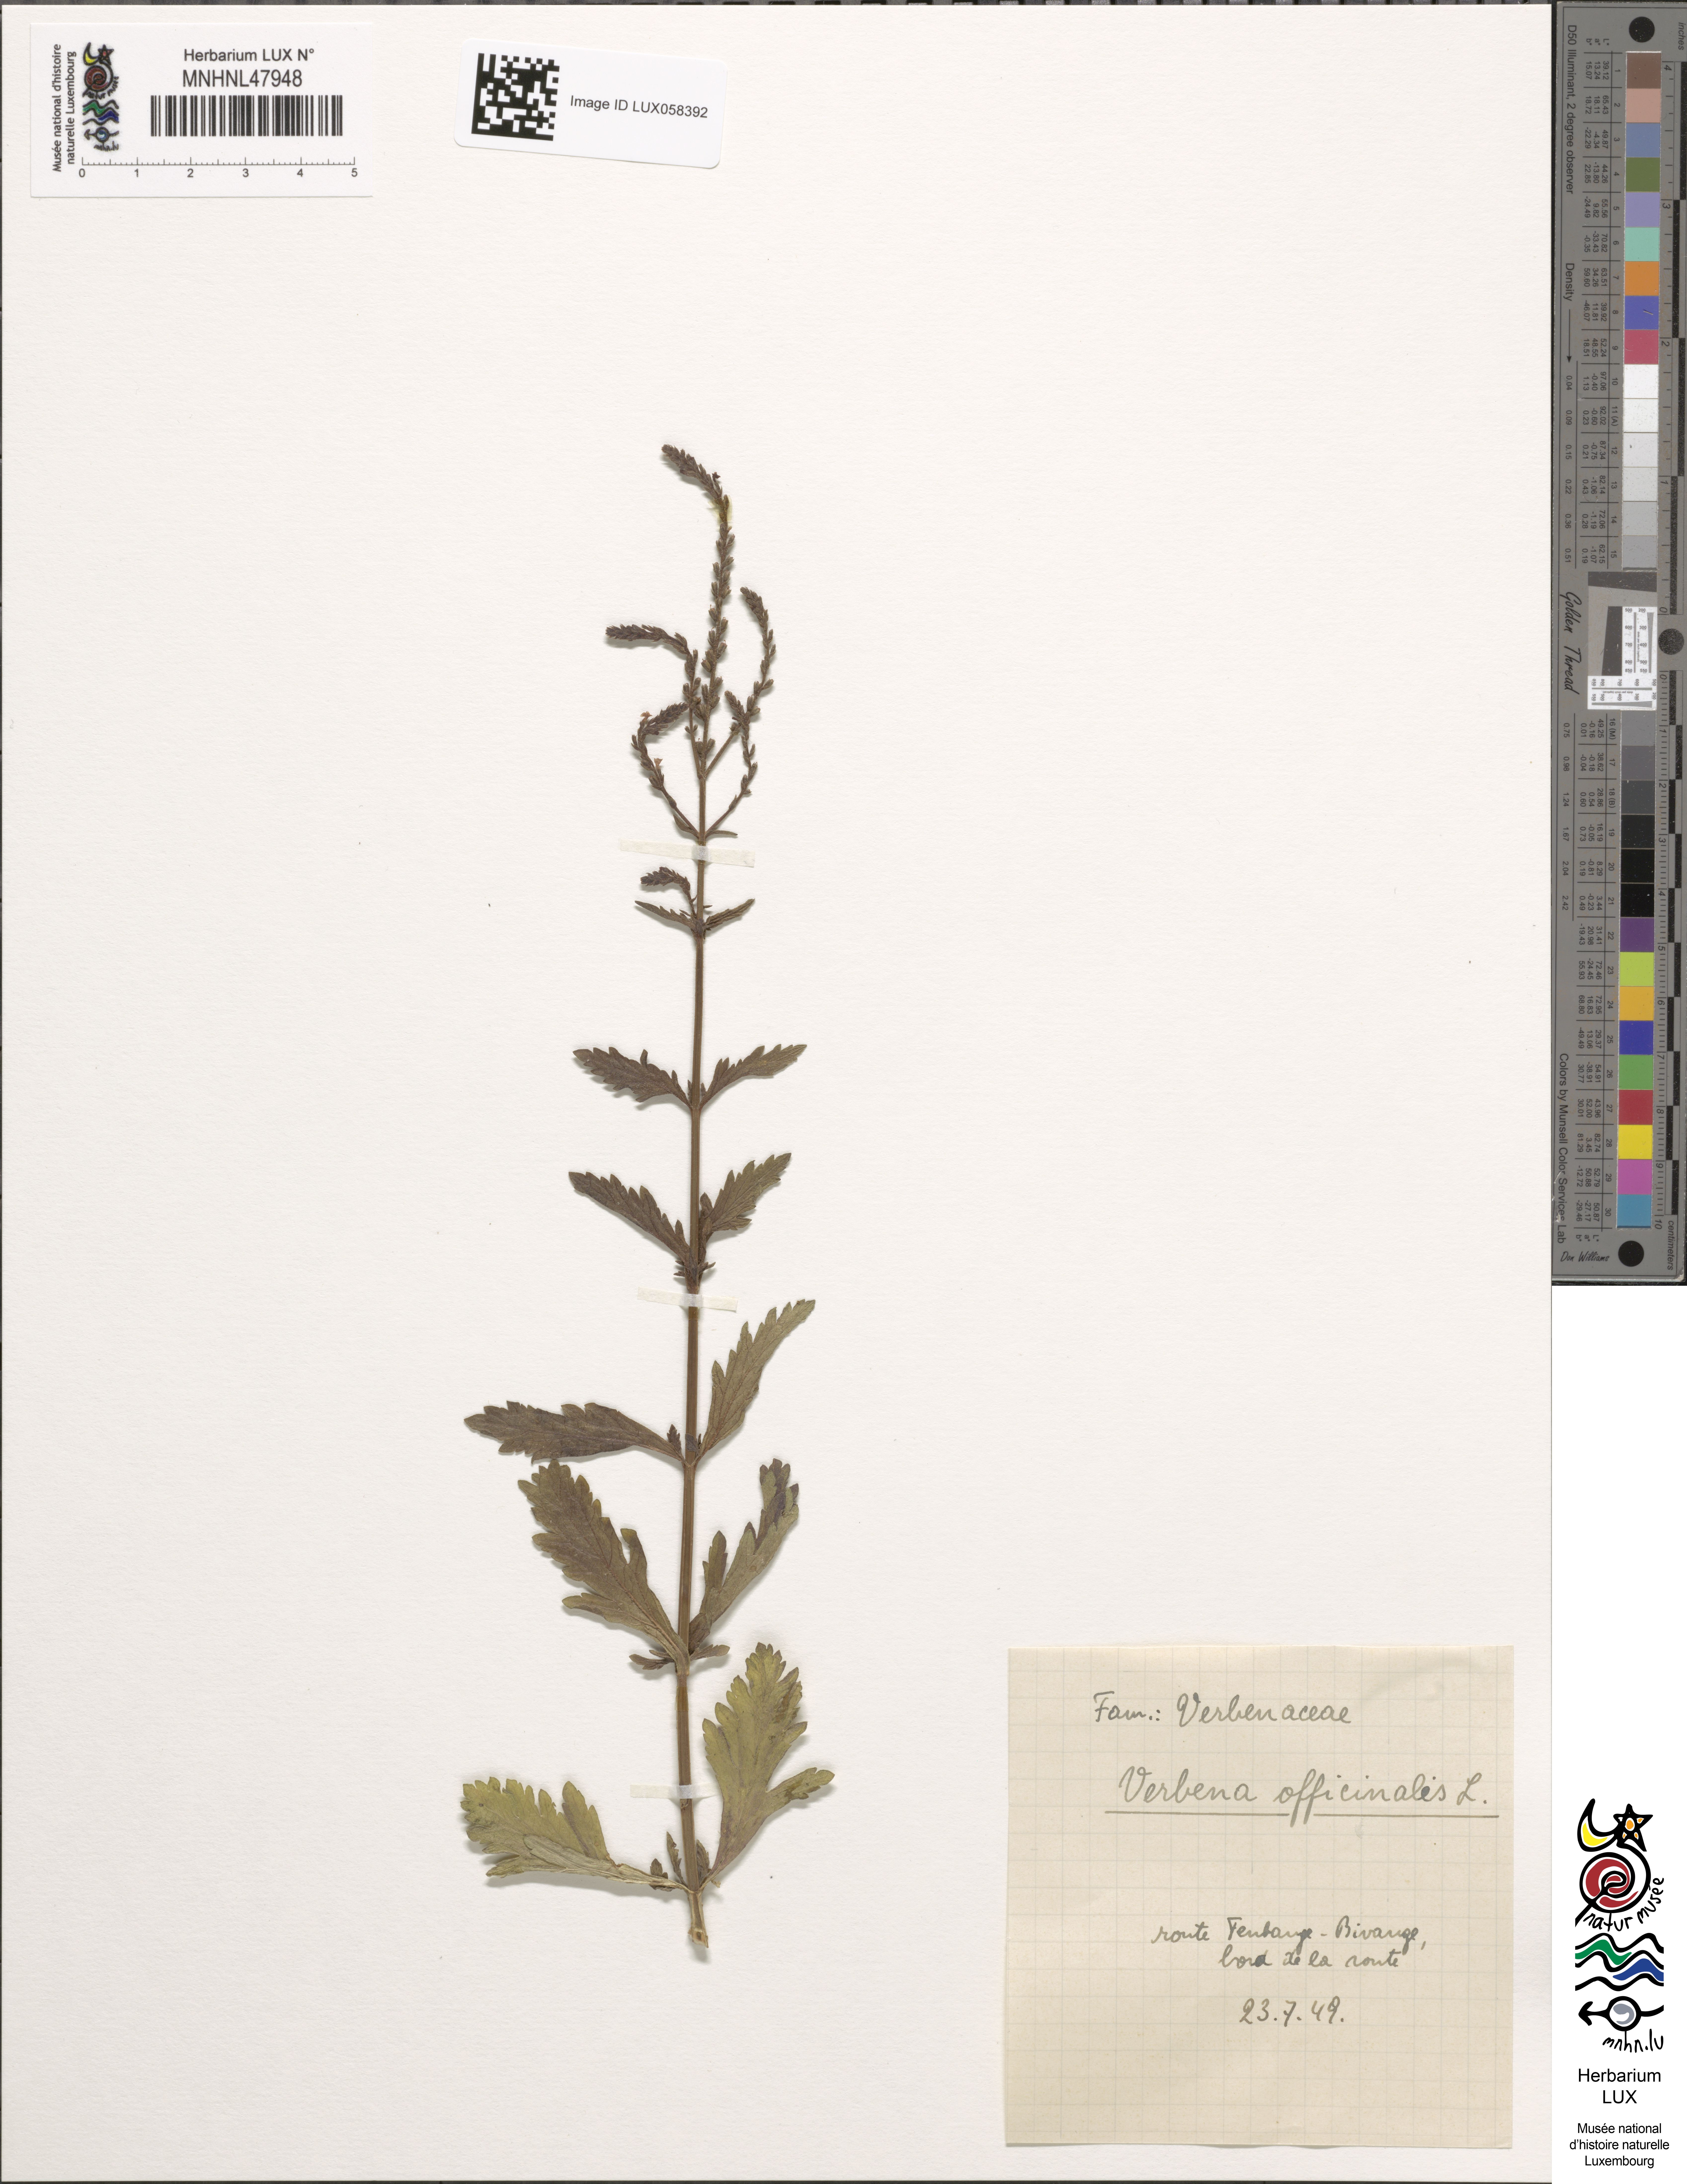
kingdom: Plantae
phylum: Tracheophyta
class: Magnoliopsida
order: Lamiales
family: Verbenaceae
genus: Verbena
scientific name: Verbena officinalis
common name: Vervain
